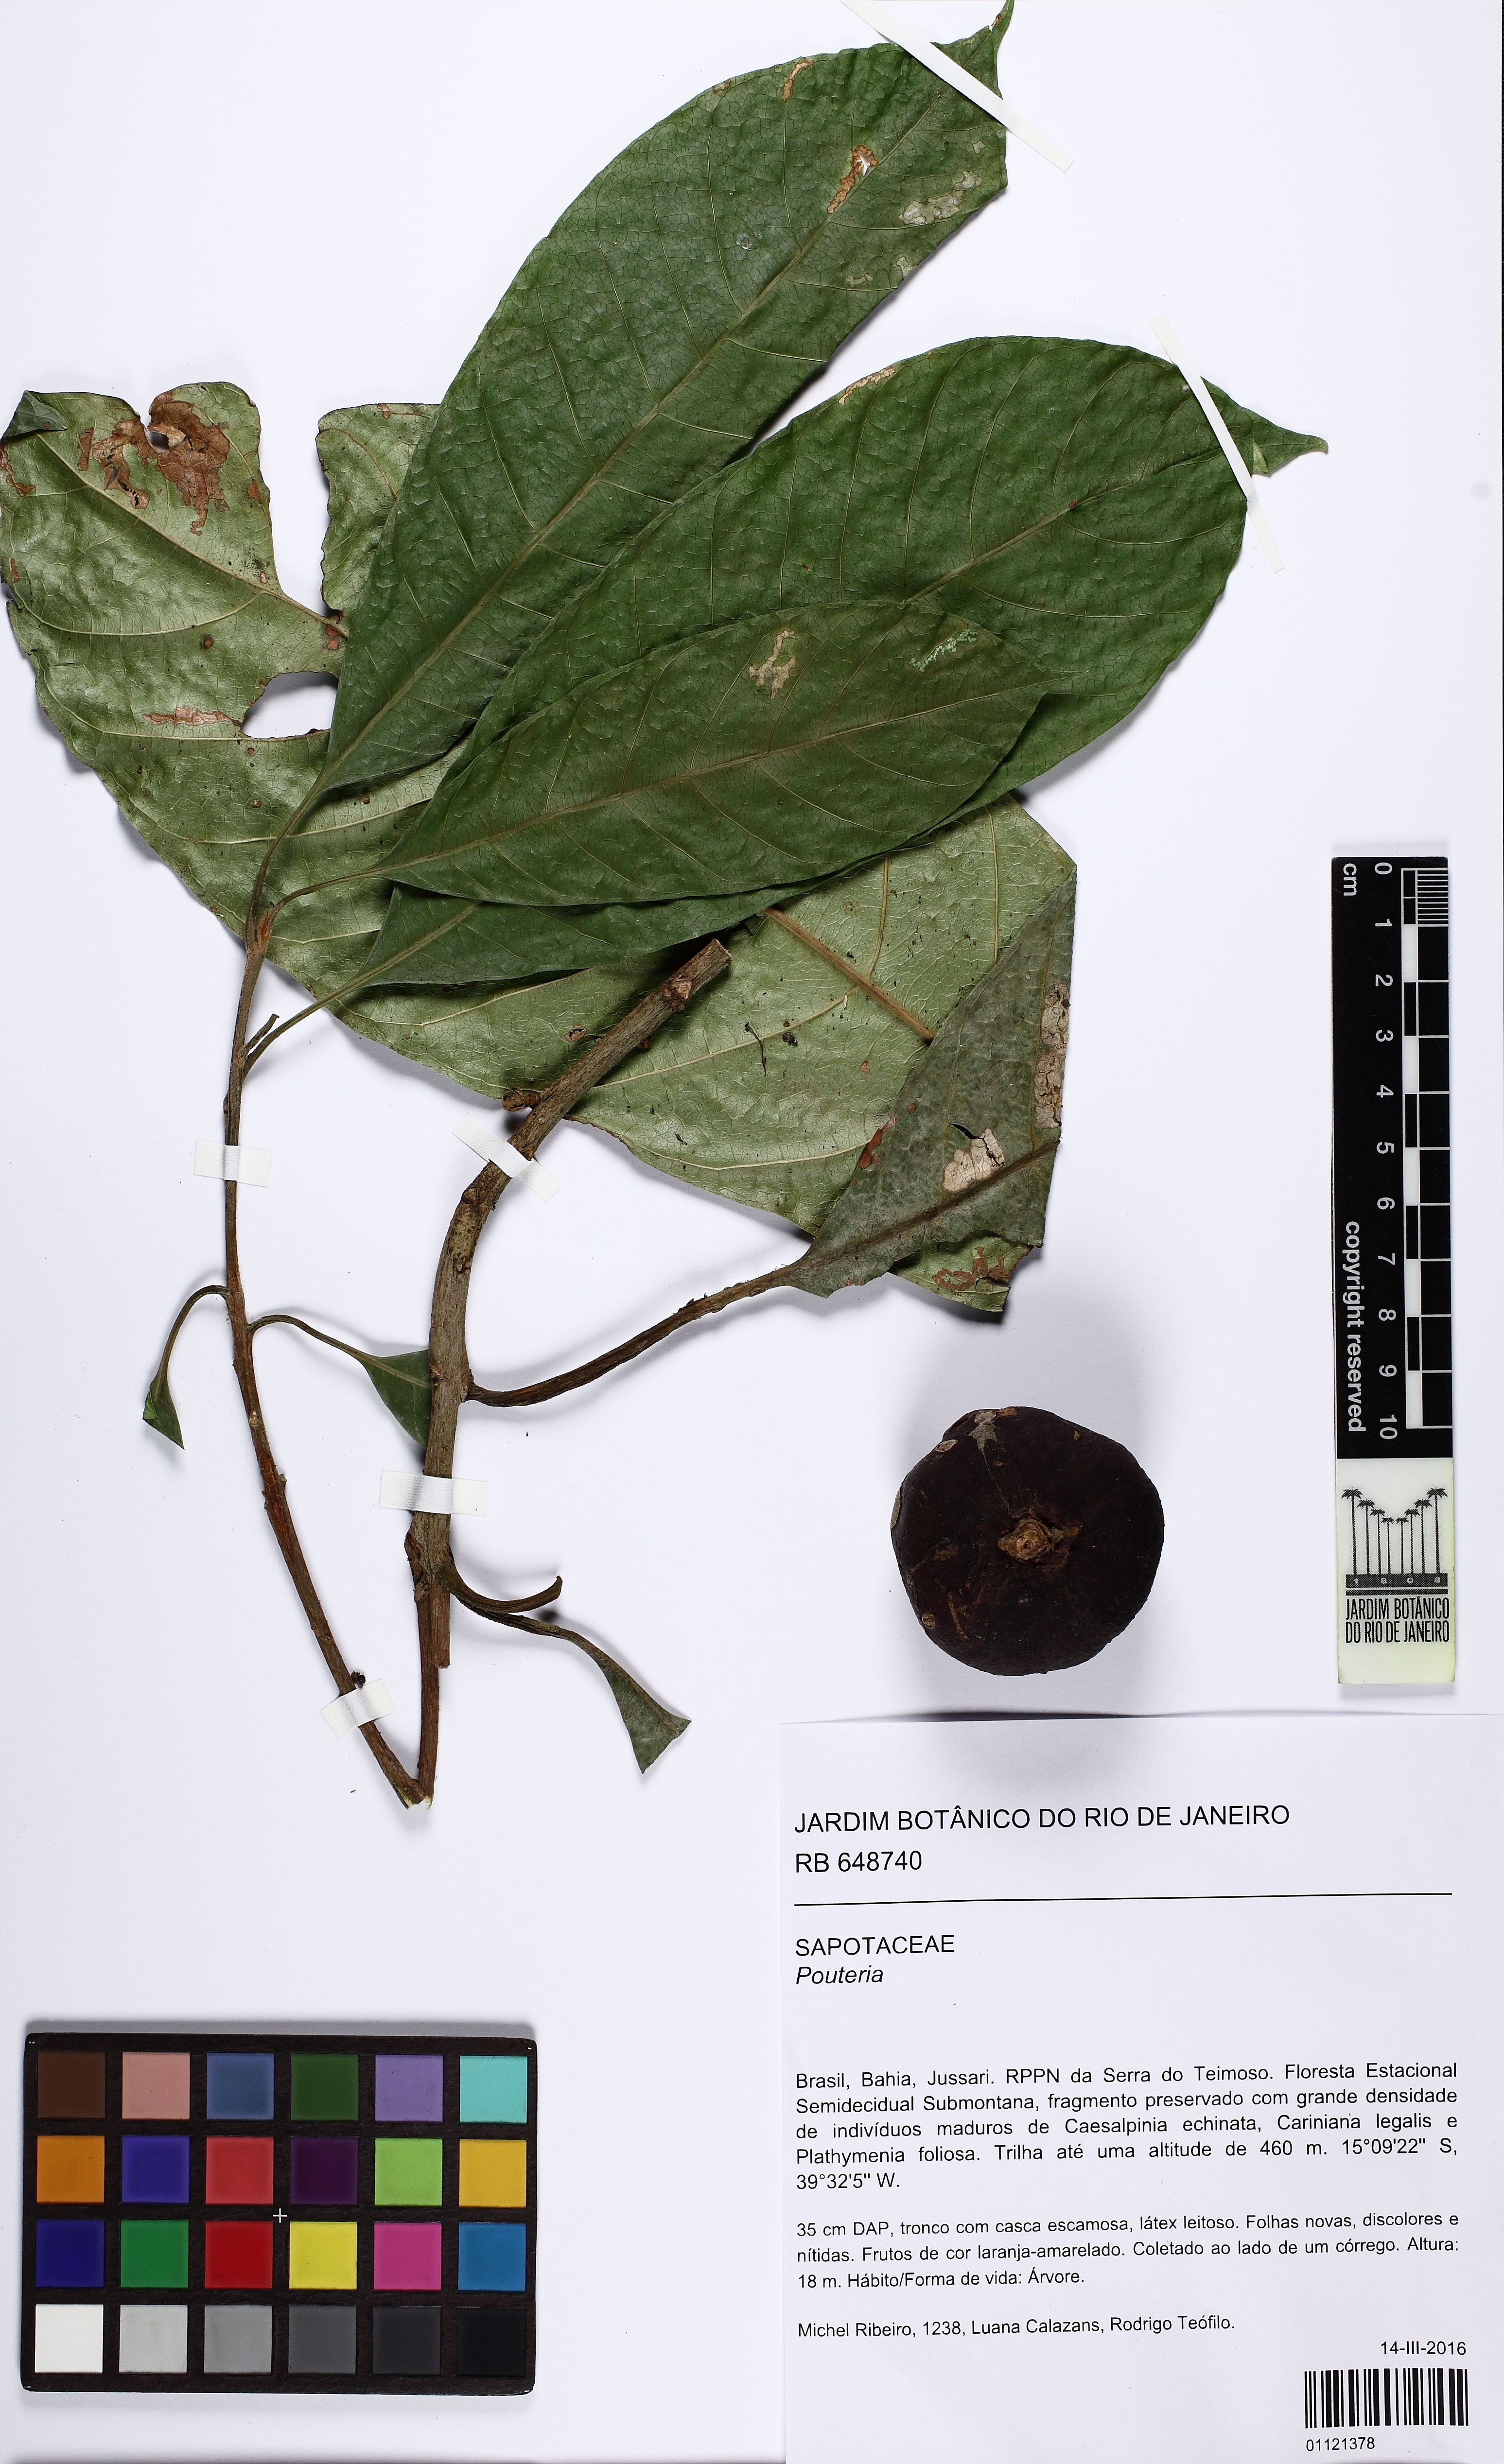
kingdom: Plantae
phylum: Tracheophyta
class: Magnoliopsida
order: Ericales
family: Sapotaceae
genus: Pouteria
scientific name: Pouteria durlandii
